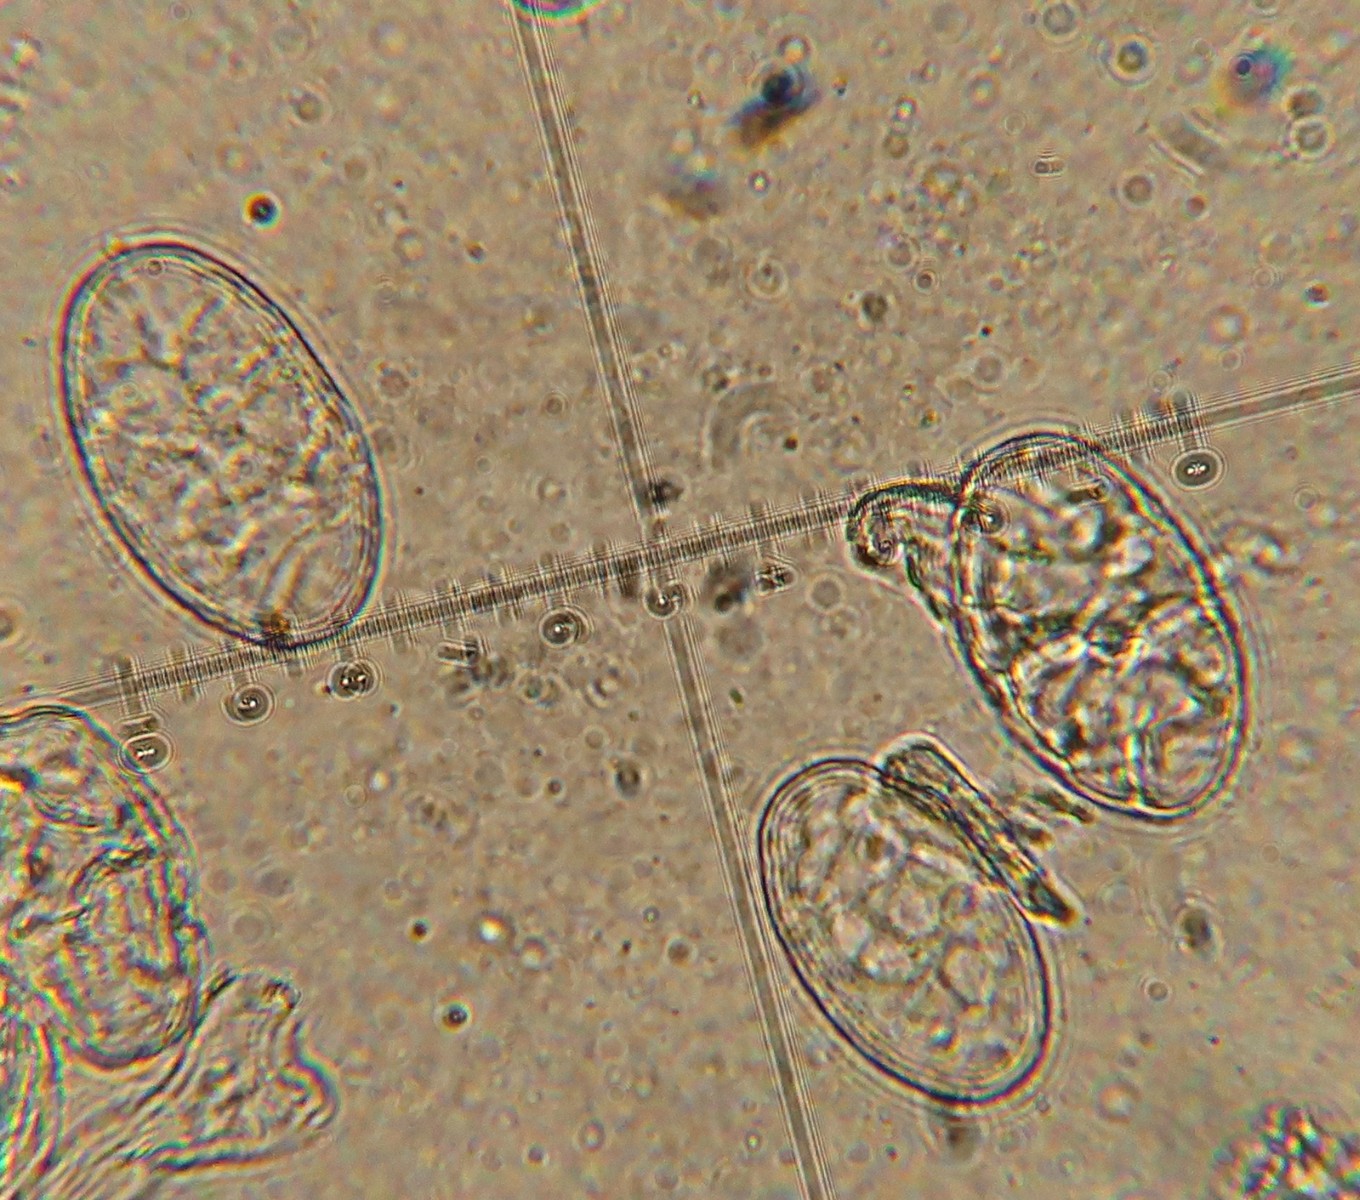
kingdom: Fungi
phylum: Ascomycota
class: Leotiomycetes
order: Helotiales
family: Erysiphaceae
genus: Erysiphe
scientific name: Erysiphe
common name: meldug
